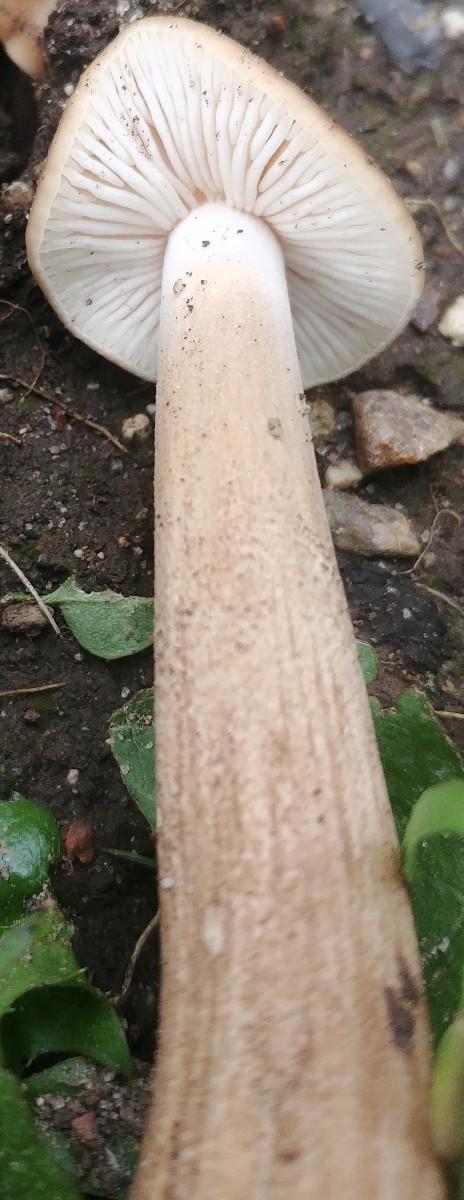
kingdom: Fungi
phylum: Basidiomycota
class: Agaricomycetes
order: Agaricales
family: Physalacriaceae
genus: Hymenopellis
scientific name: Hymenopellis radicata
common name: almindelig pælerodshat
